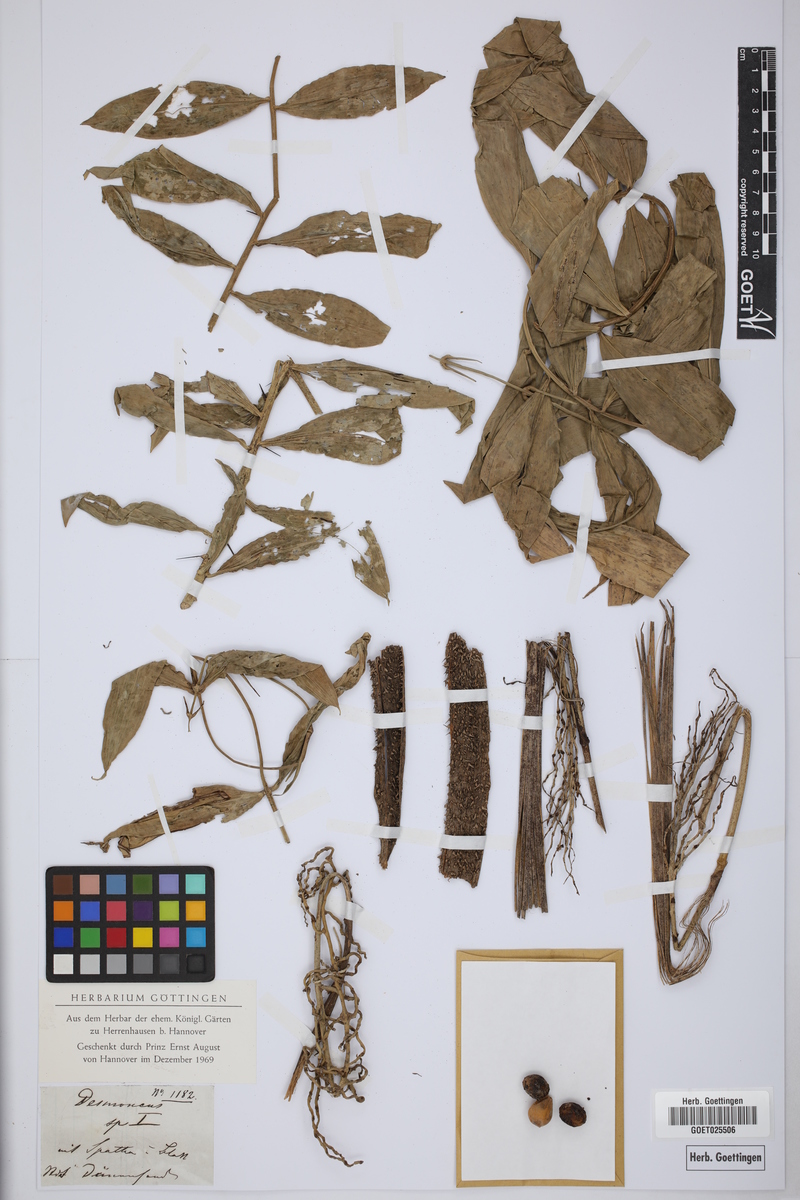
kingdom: Plantae
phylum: Tracheophyta
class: Liliopsida
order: Arecales
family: Arecaceae
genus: Desmoncus
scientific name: Desmoncus
